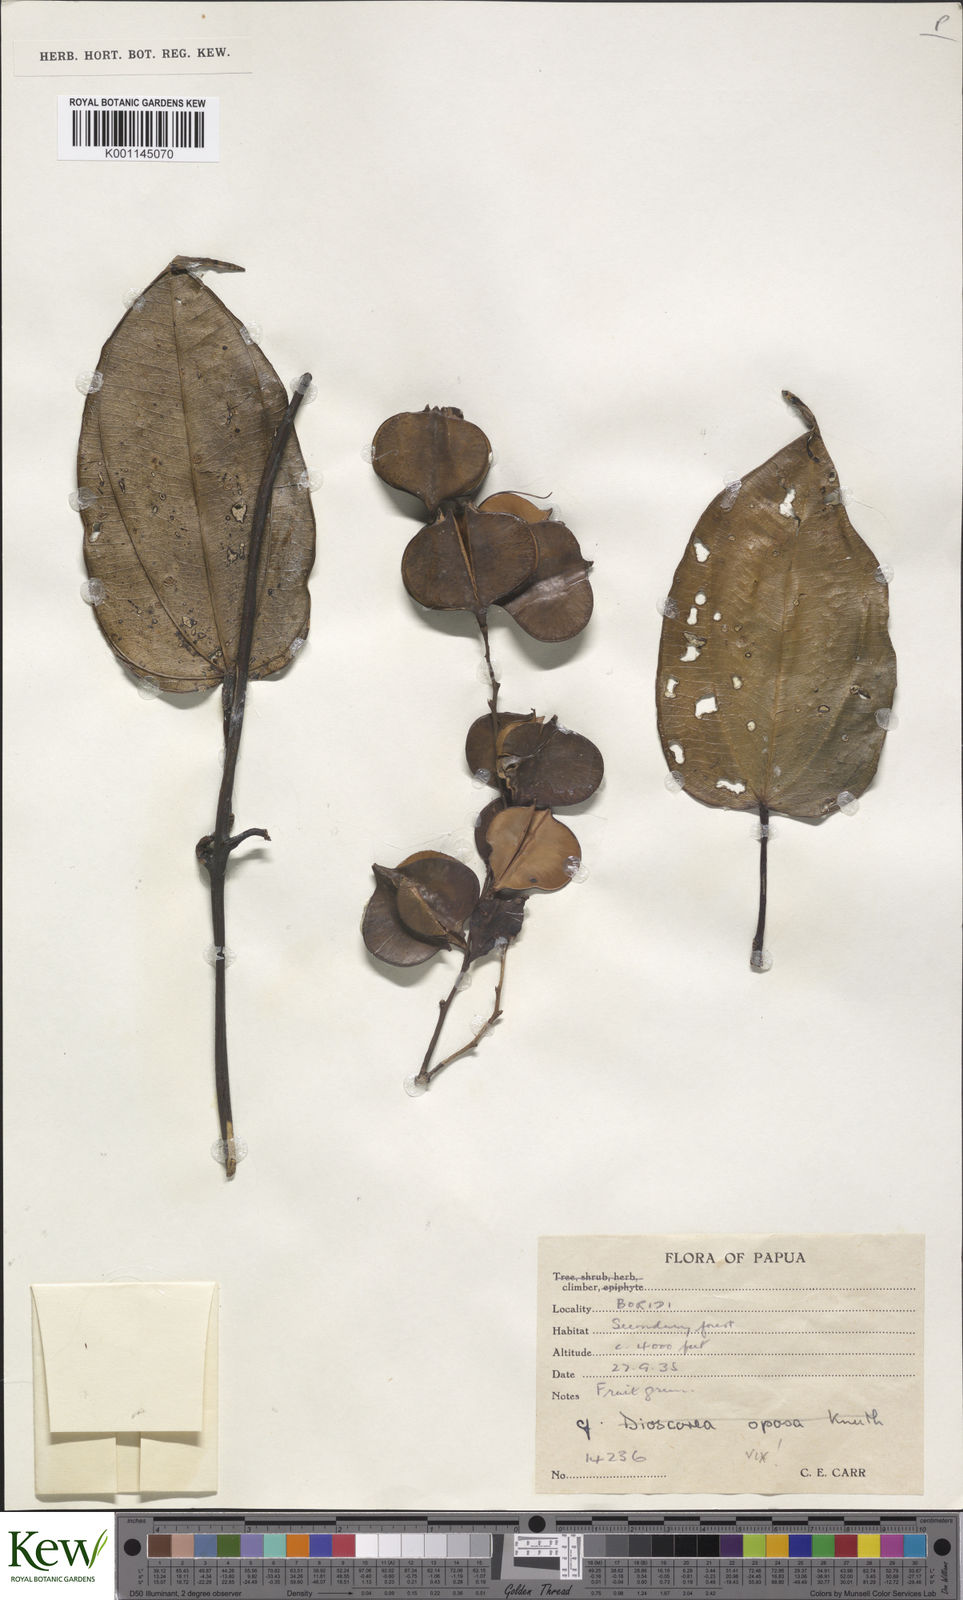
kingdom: Plantae
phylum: Tracheophyta
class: Liliopsida
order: Dioscoreales
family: Dioscoreaceae
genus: Dioscorea
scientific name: Dioscorea
